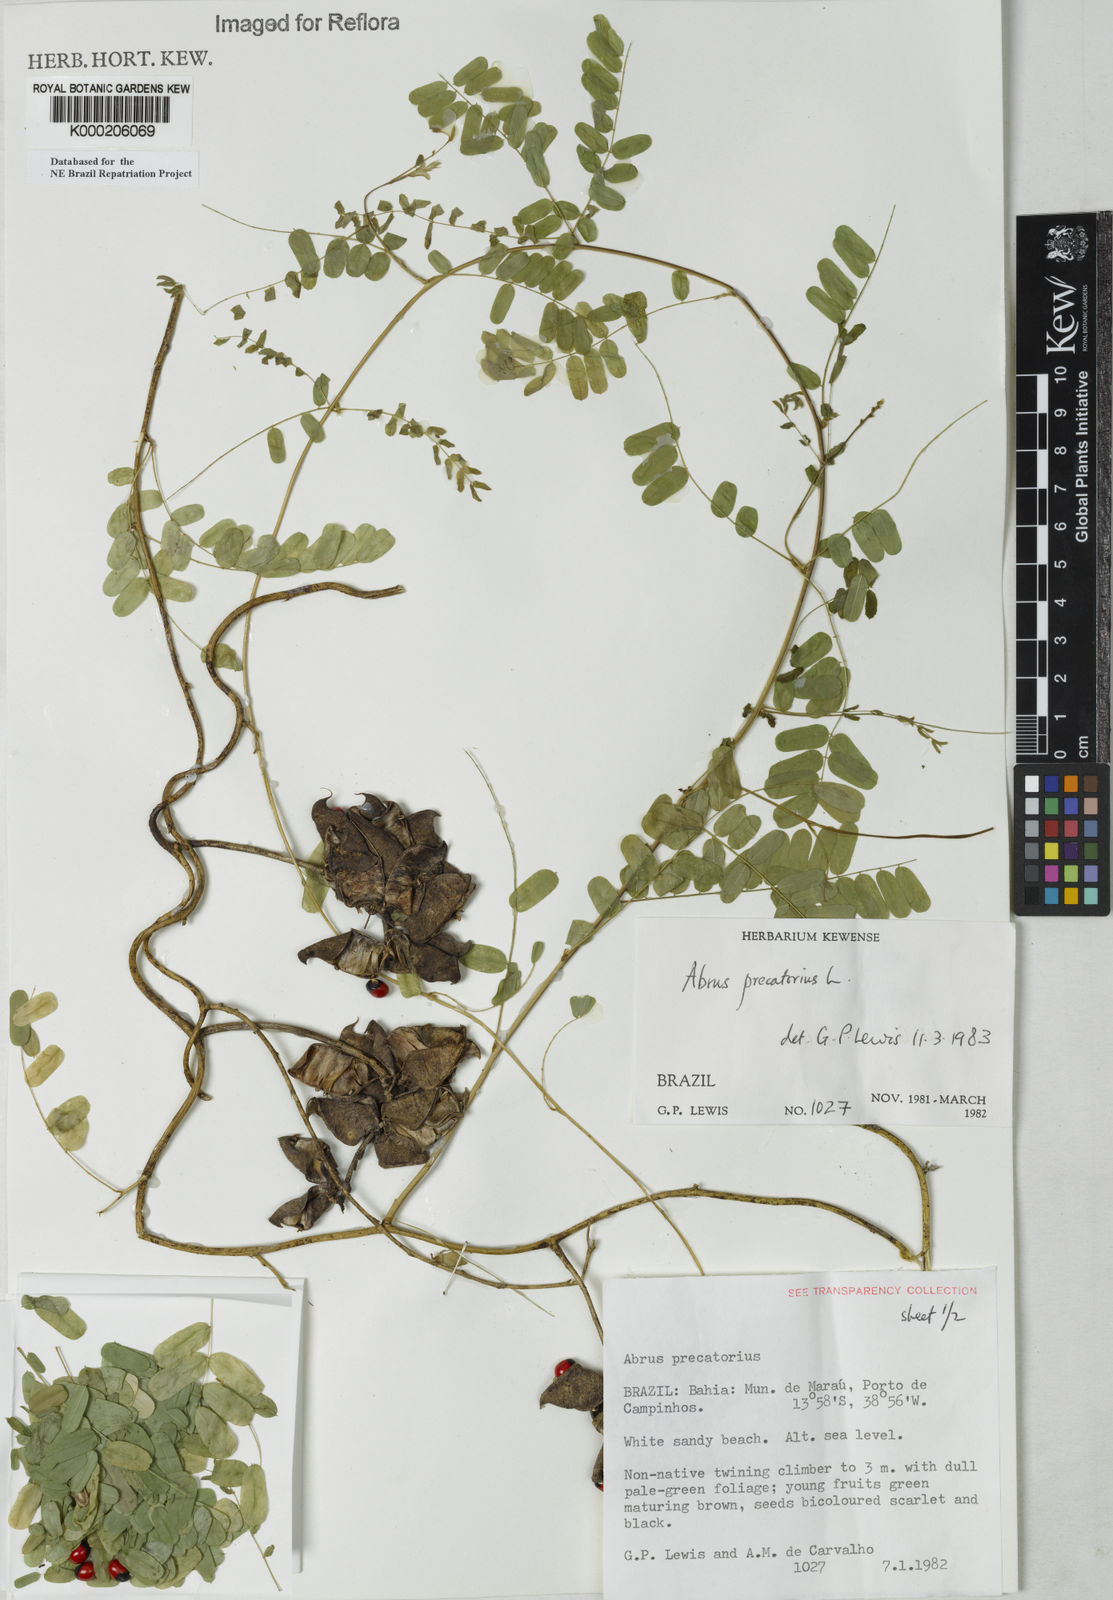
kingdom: Plantae
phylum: Tracheophyta
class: Magnoliopsida
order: Fabales
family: Fabaceae
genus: Abrus
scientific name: Abrus precatorius
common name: Rosarypea
